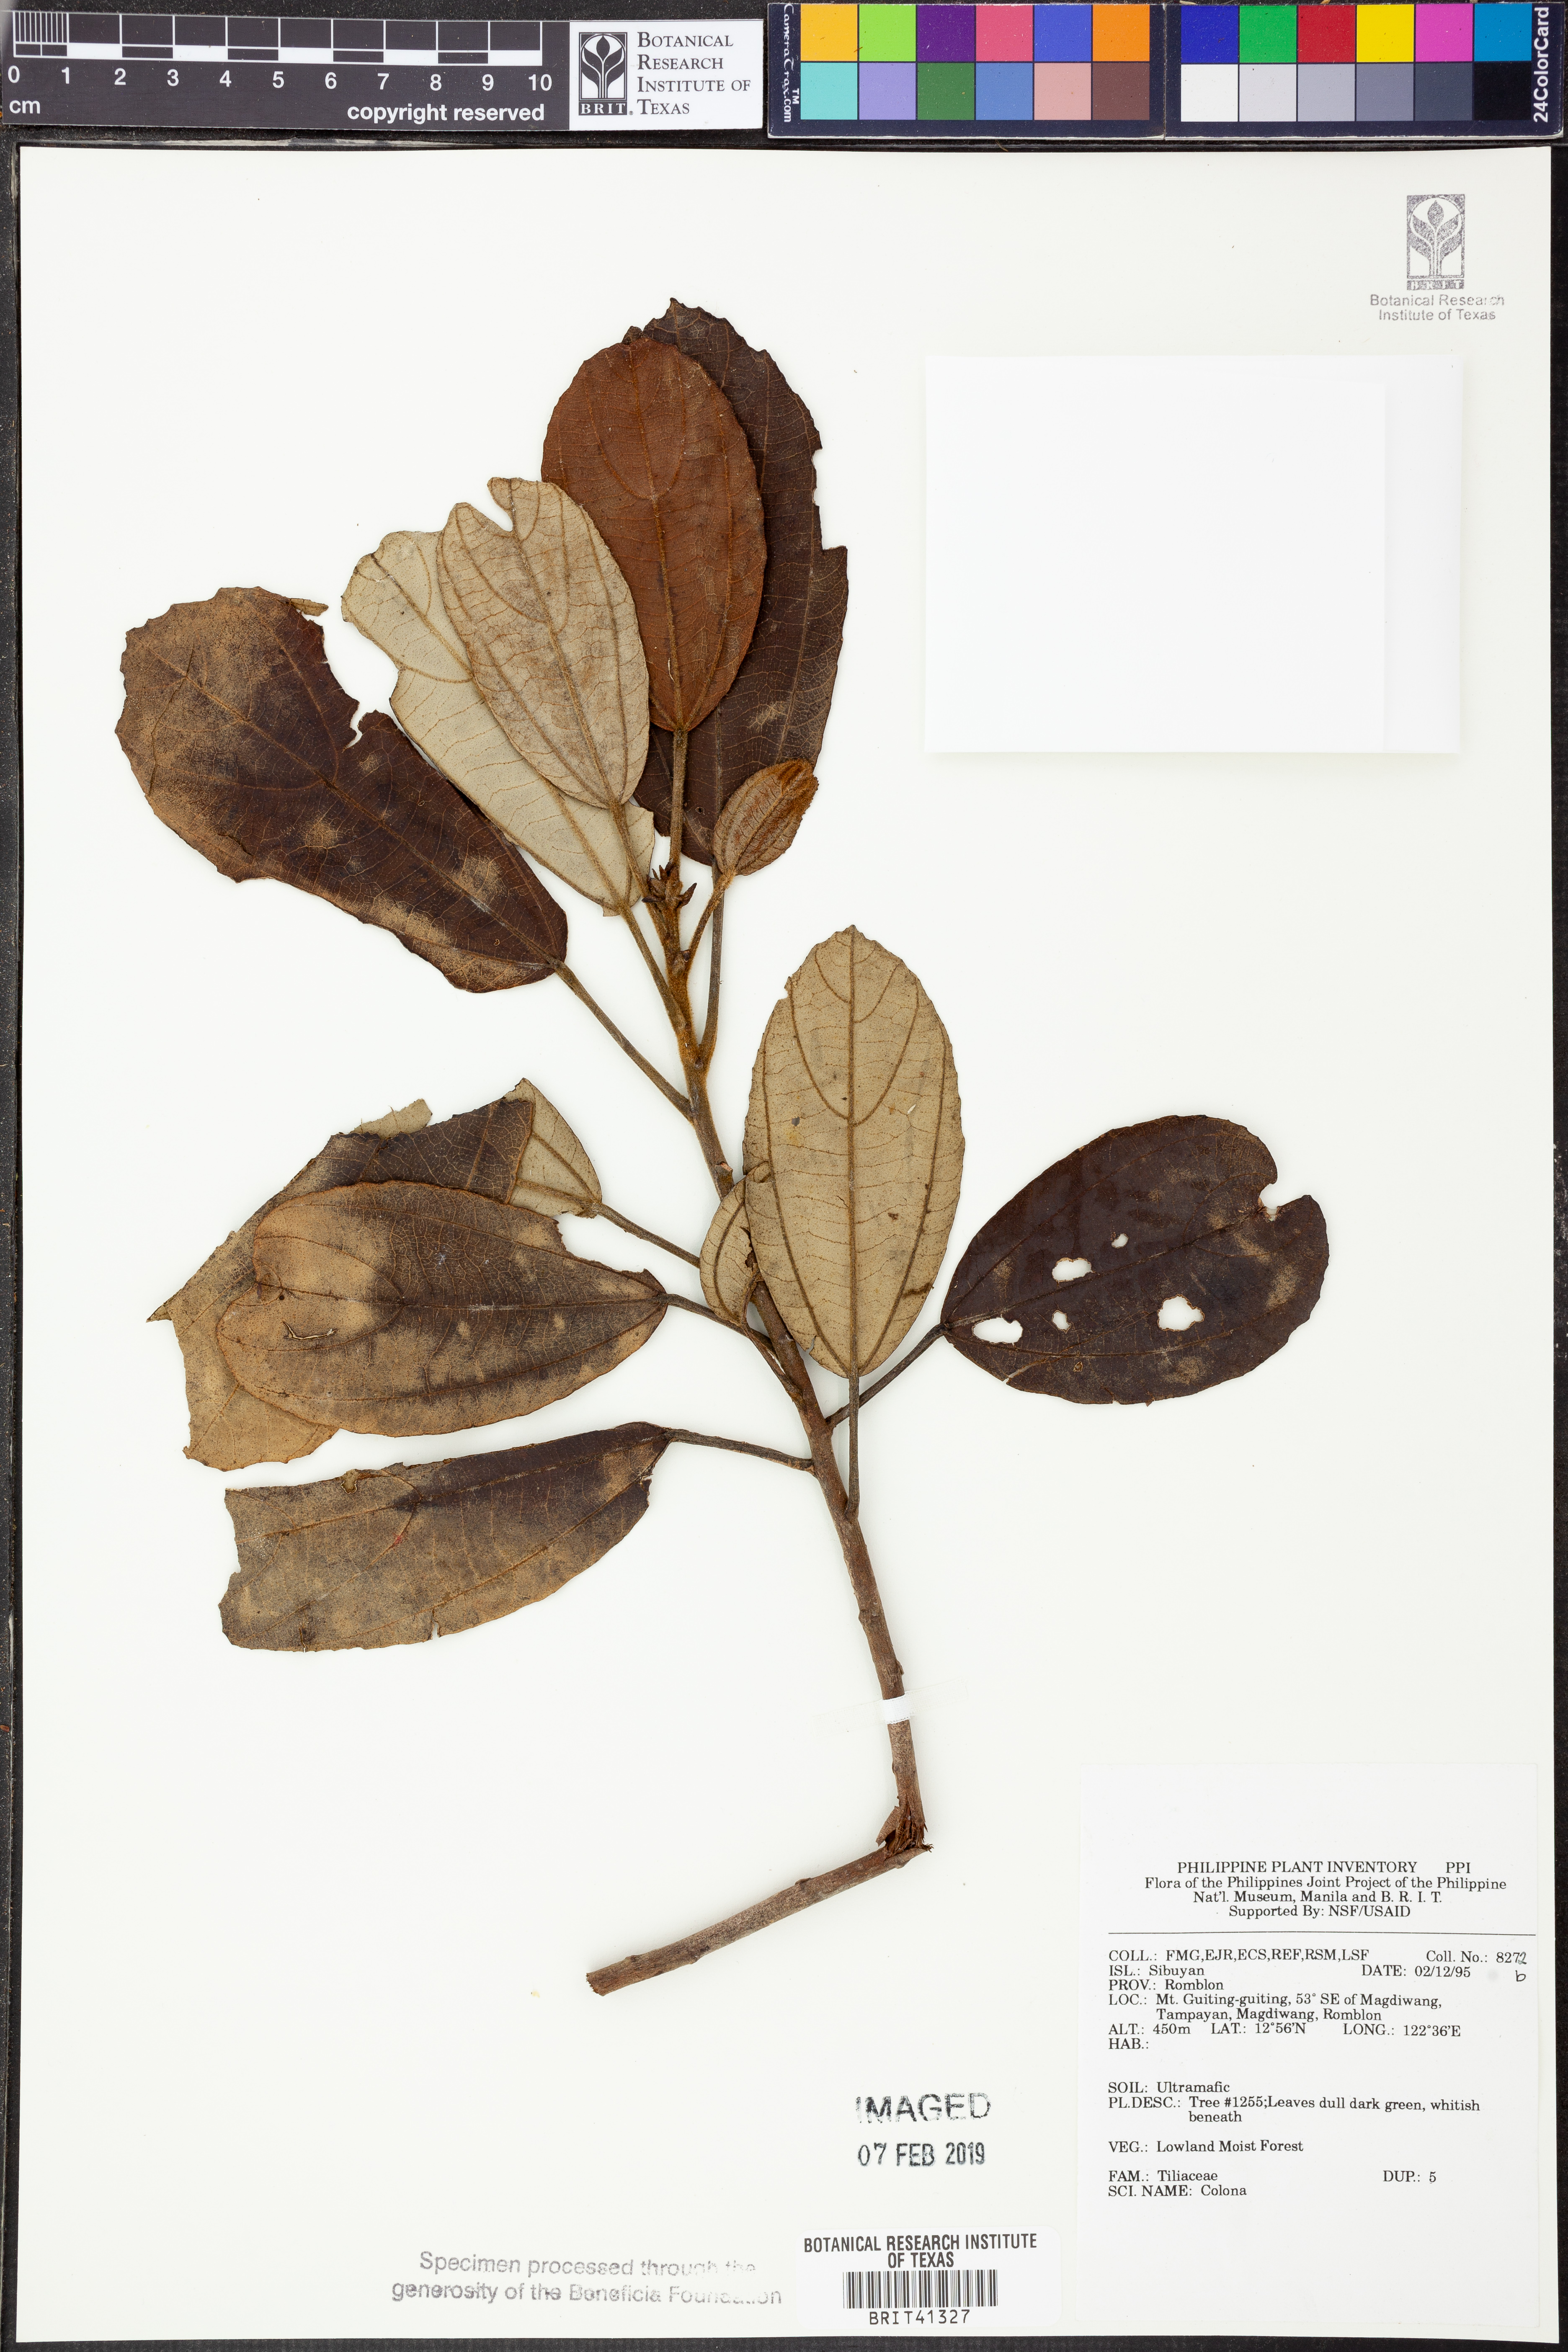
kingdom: Plantae
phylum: Tracheophyta
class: Magnoliopsida
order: Malvales
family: Malvaceae
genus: Colona
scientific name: Colona
